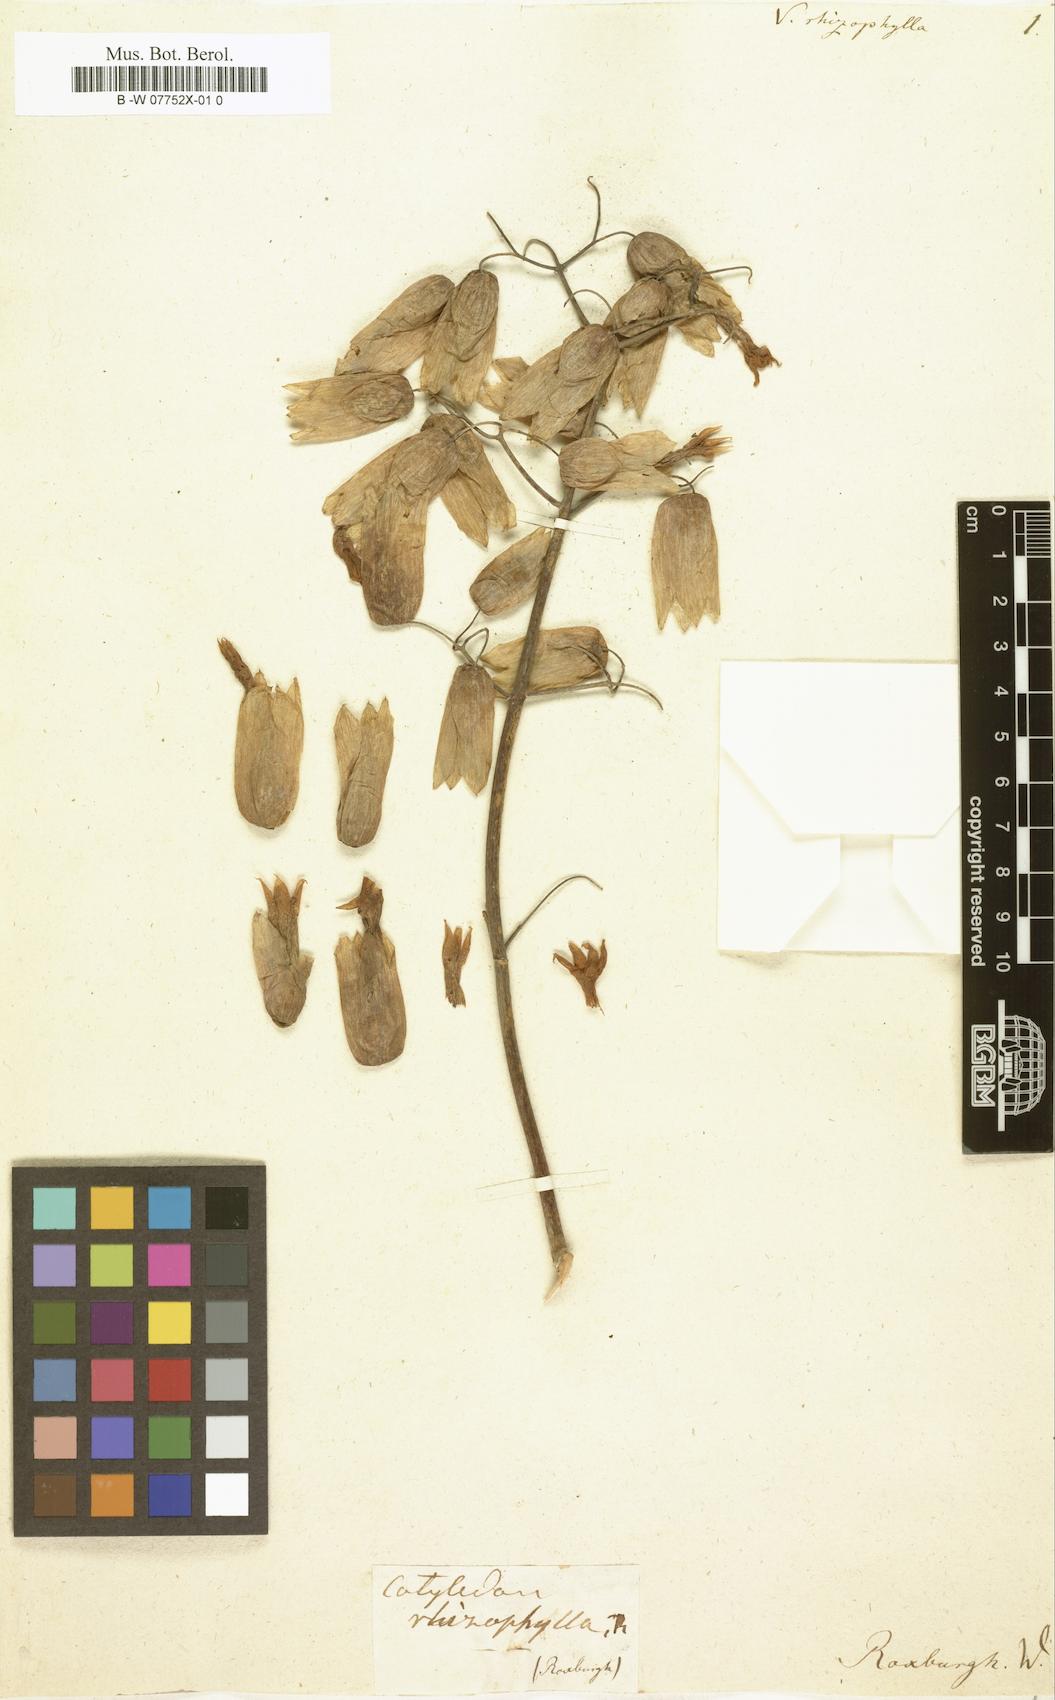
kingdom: Plantae
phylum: Tracheophyta
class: Magnoliopsida
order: Saxifragales
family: Crassulaceae
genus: Kalanchoe
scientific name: Kalanchoe Vereia rhizophylla
